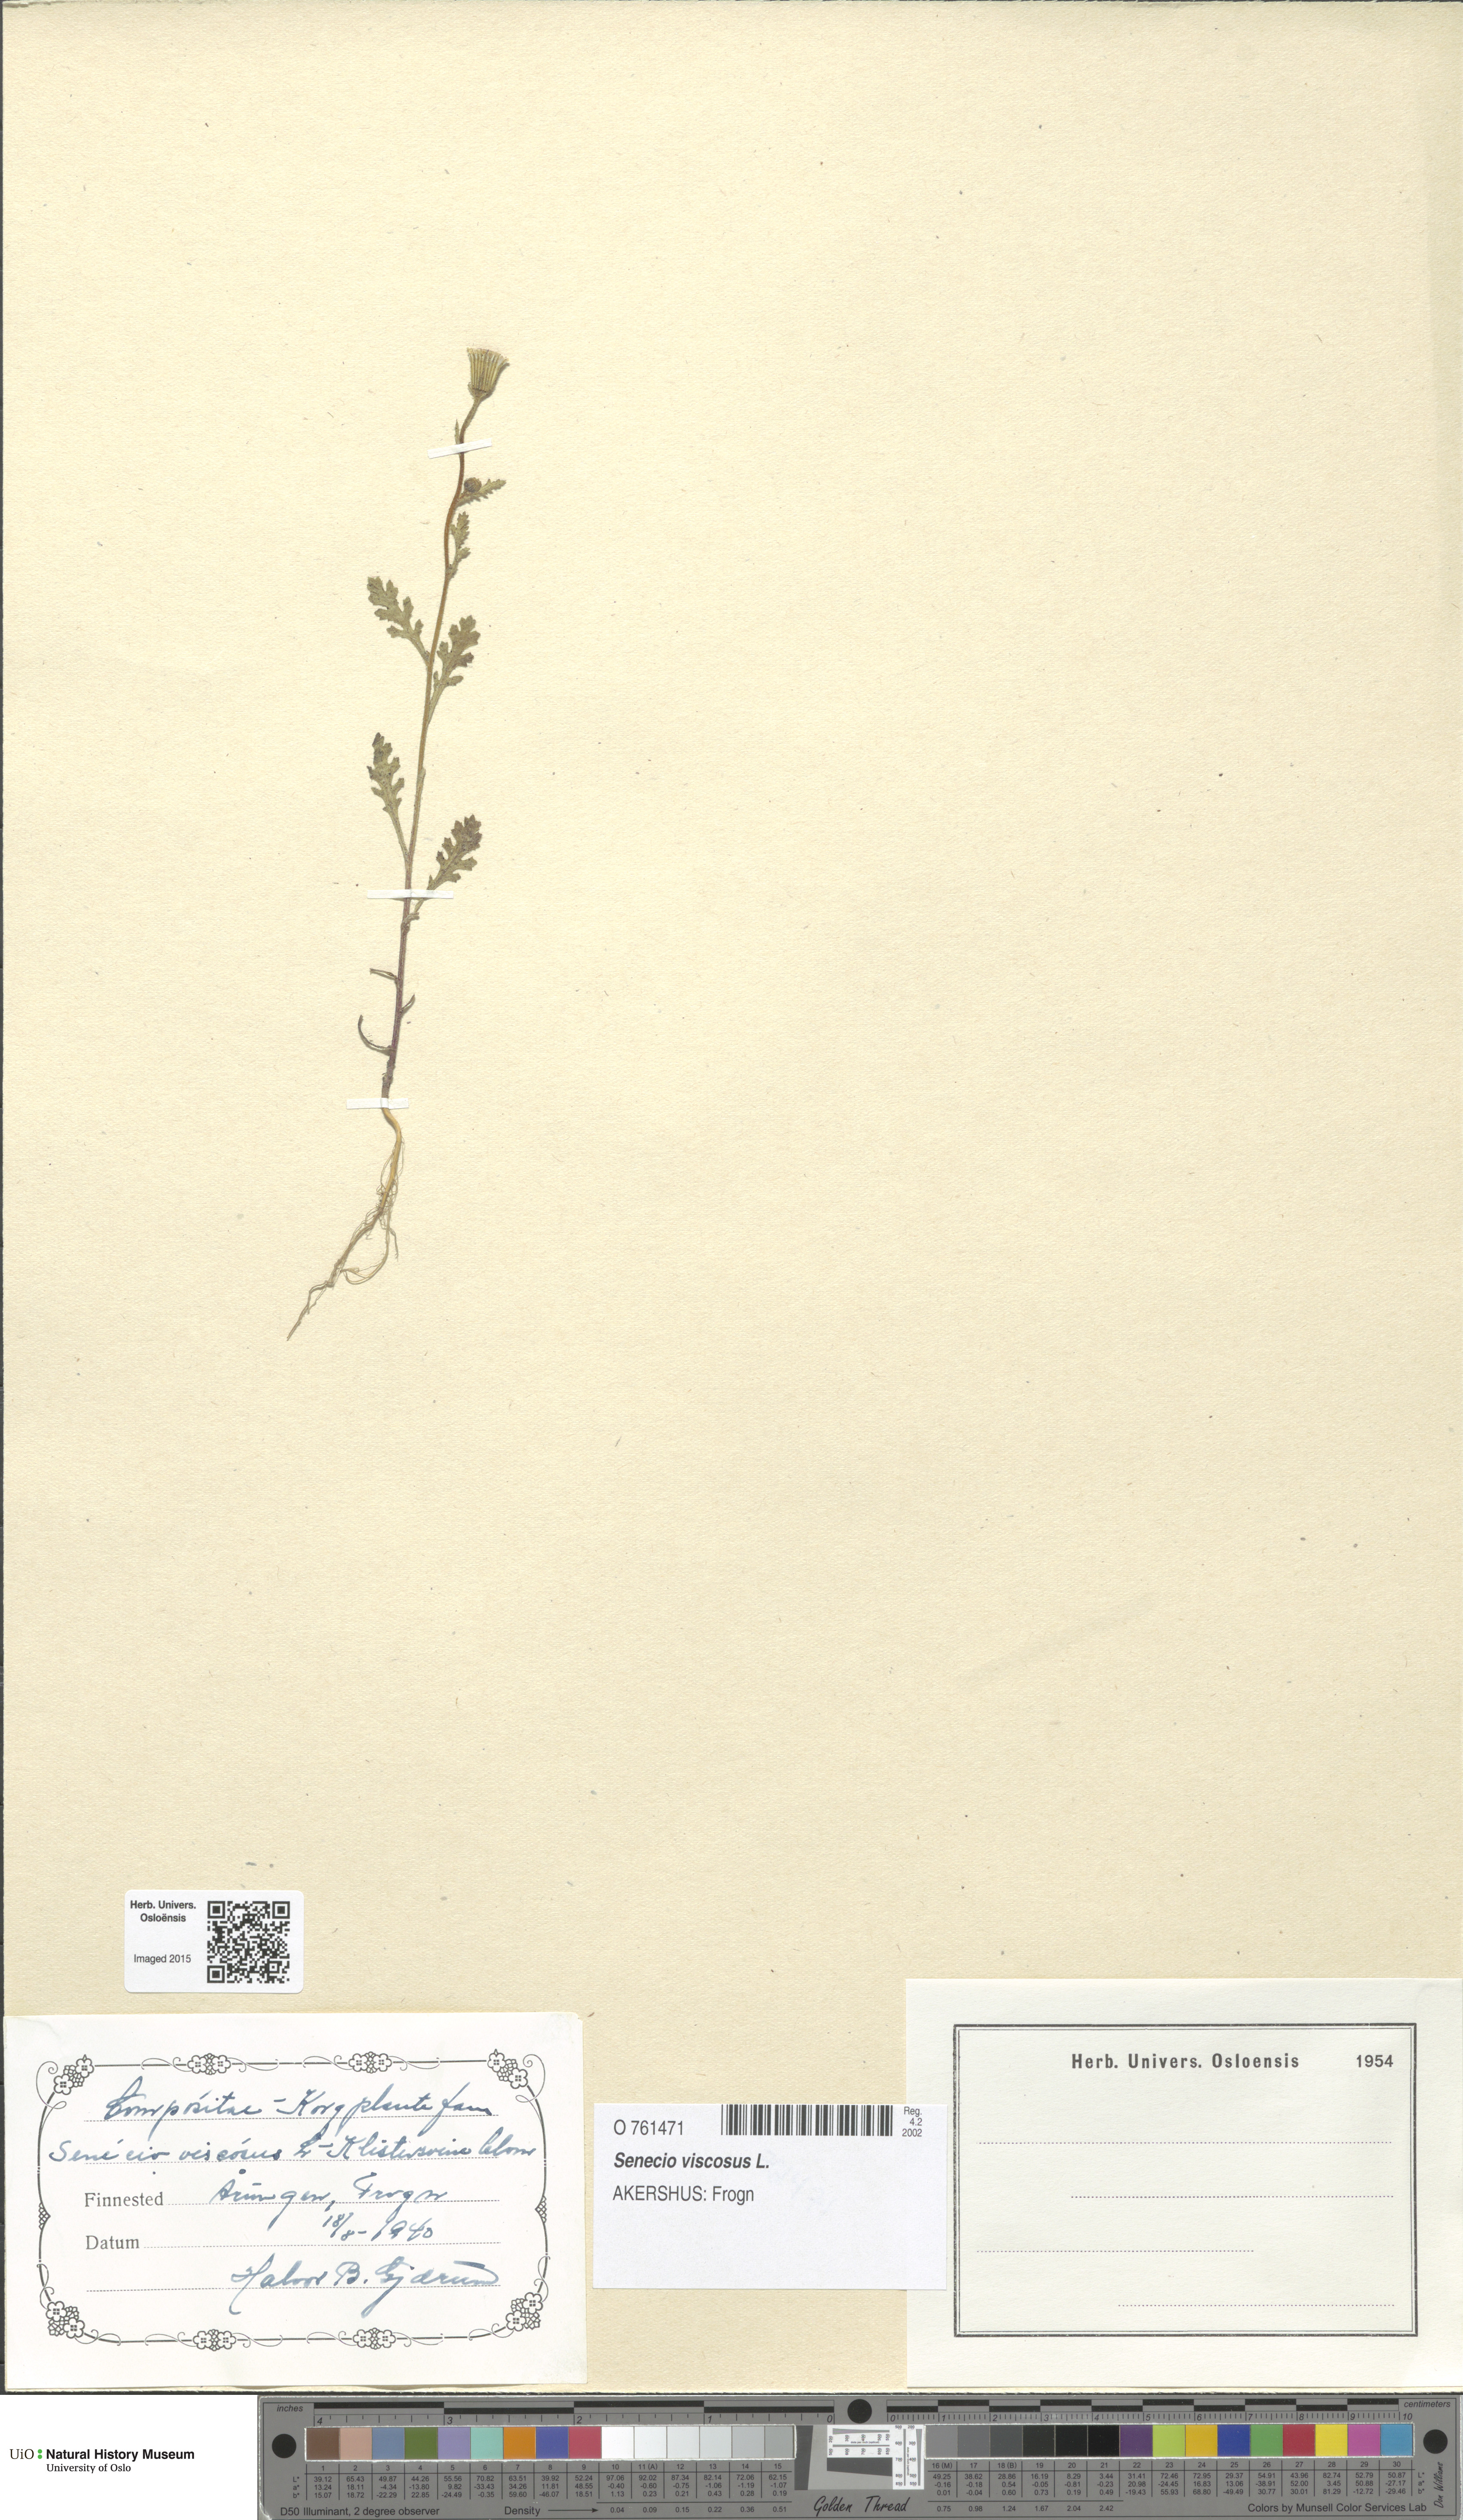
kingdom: Plantae
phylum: Tracheophyta
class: Magnoliopsida
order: Asterales
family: Asteraceae
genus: Senecio
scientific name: Senecio viscosus
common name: Sticky groundsel
